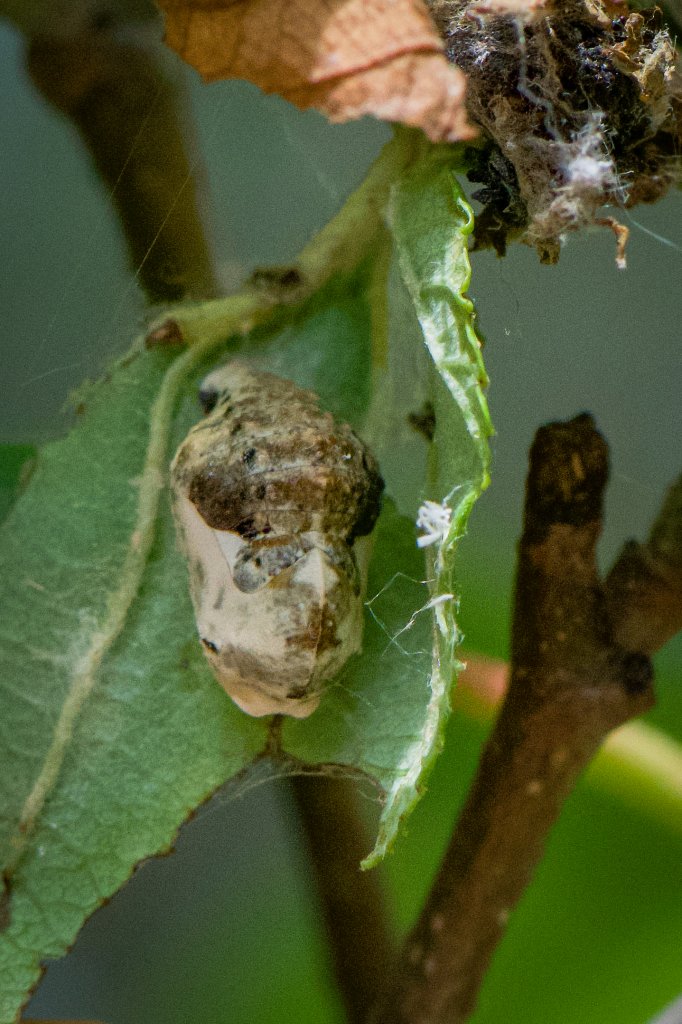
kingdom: Animalia
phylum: Arthropoda
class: Insecta
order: Lepidoptera
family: Lycaenidae
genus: Feniseca
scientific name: Feniseca tarquinius
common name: Harvester
